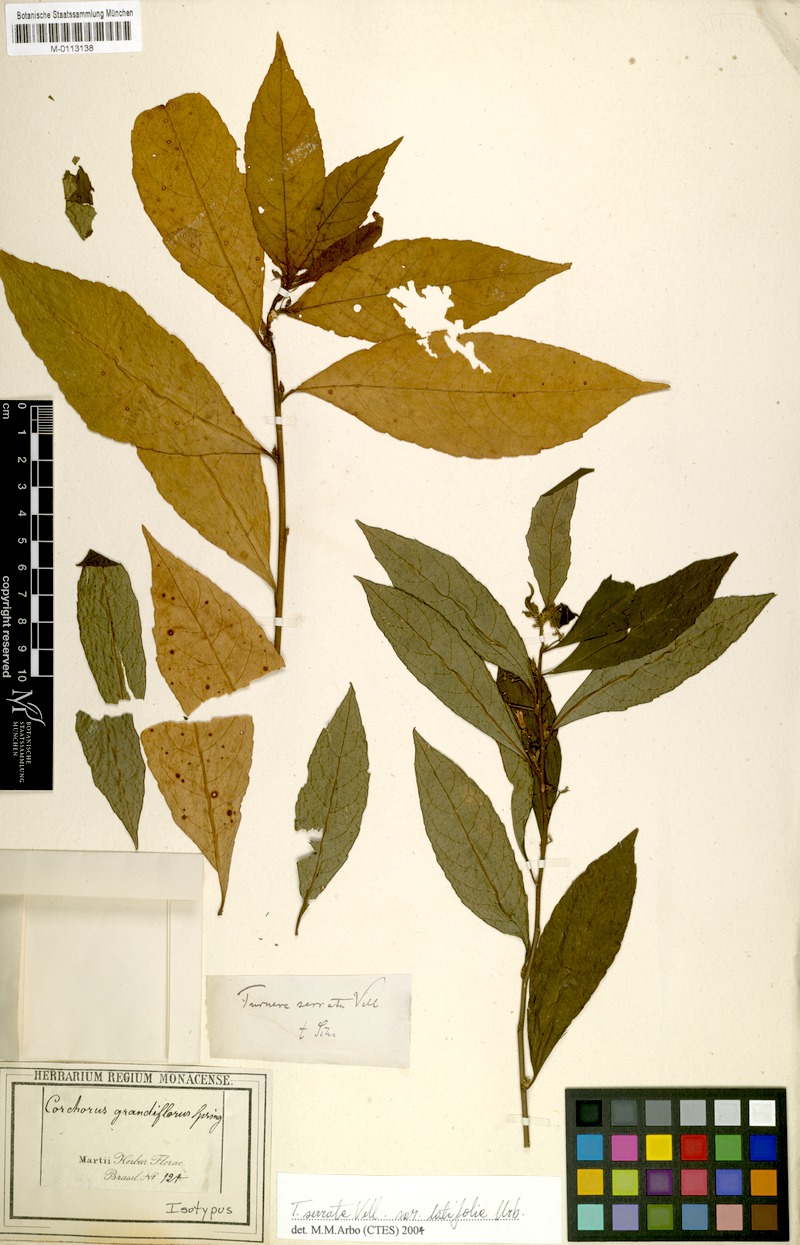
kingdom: Plantae
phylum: Tracheophyta
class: Magnoliopsida
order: Malpighiales
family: Turneraceae
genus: Turnera
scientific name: Turnera serrata
